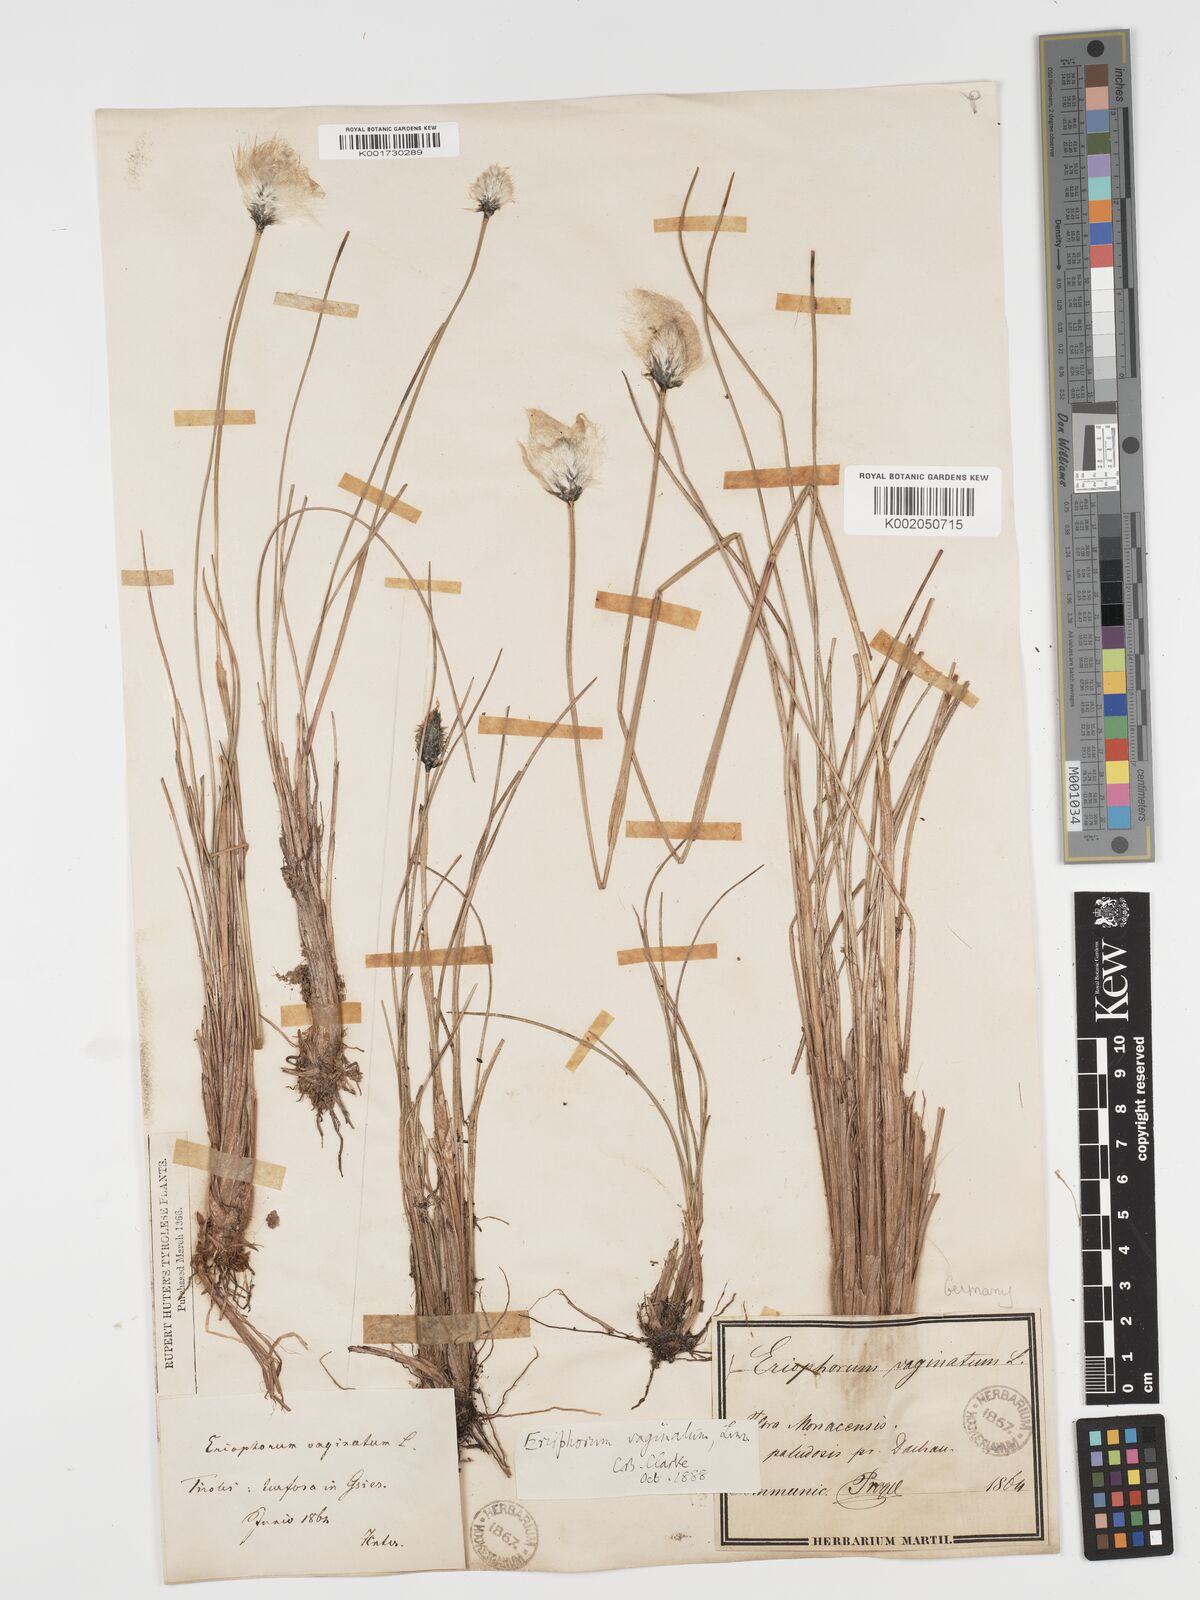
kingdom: Plantae
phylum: Tracheophyta
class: Liliopsida
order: Poales
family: Cyperaceae
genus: Eriophorum
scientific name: Eriophorum vaginatum
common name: Hare's-tail cottongrass
